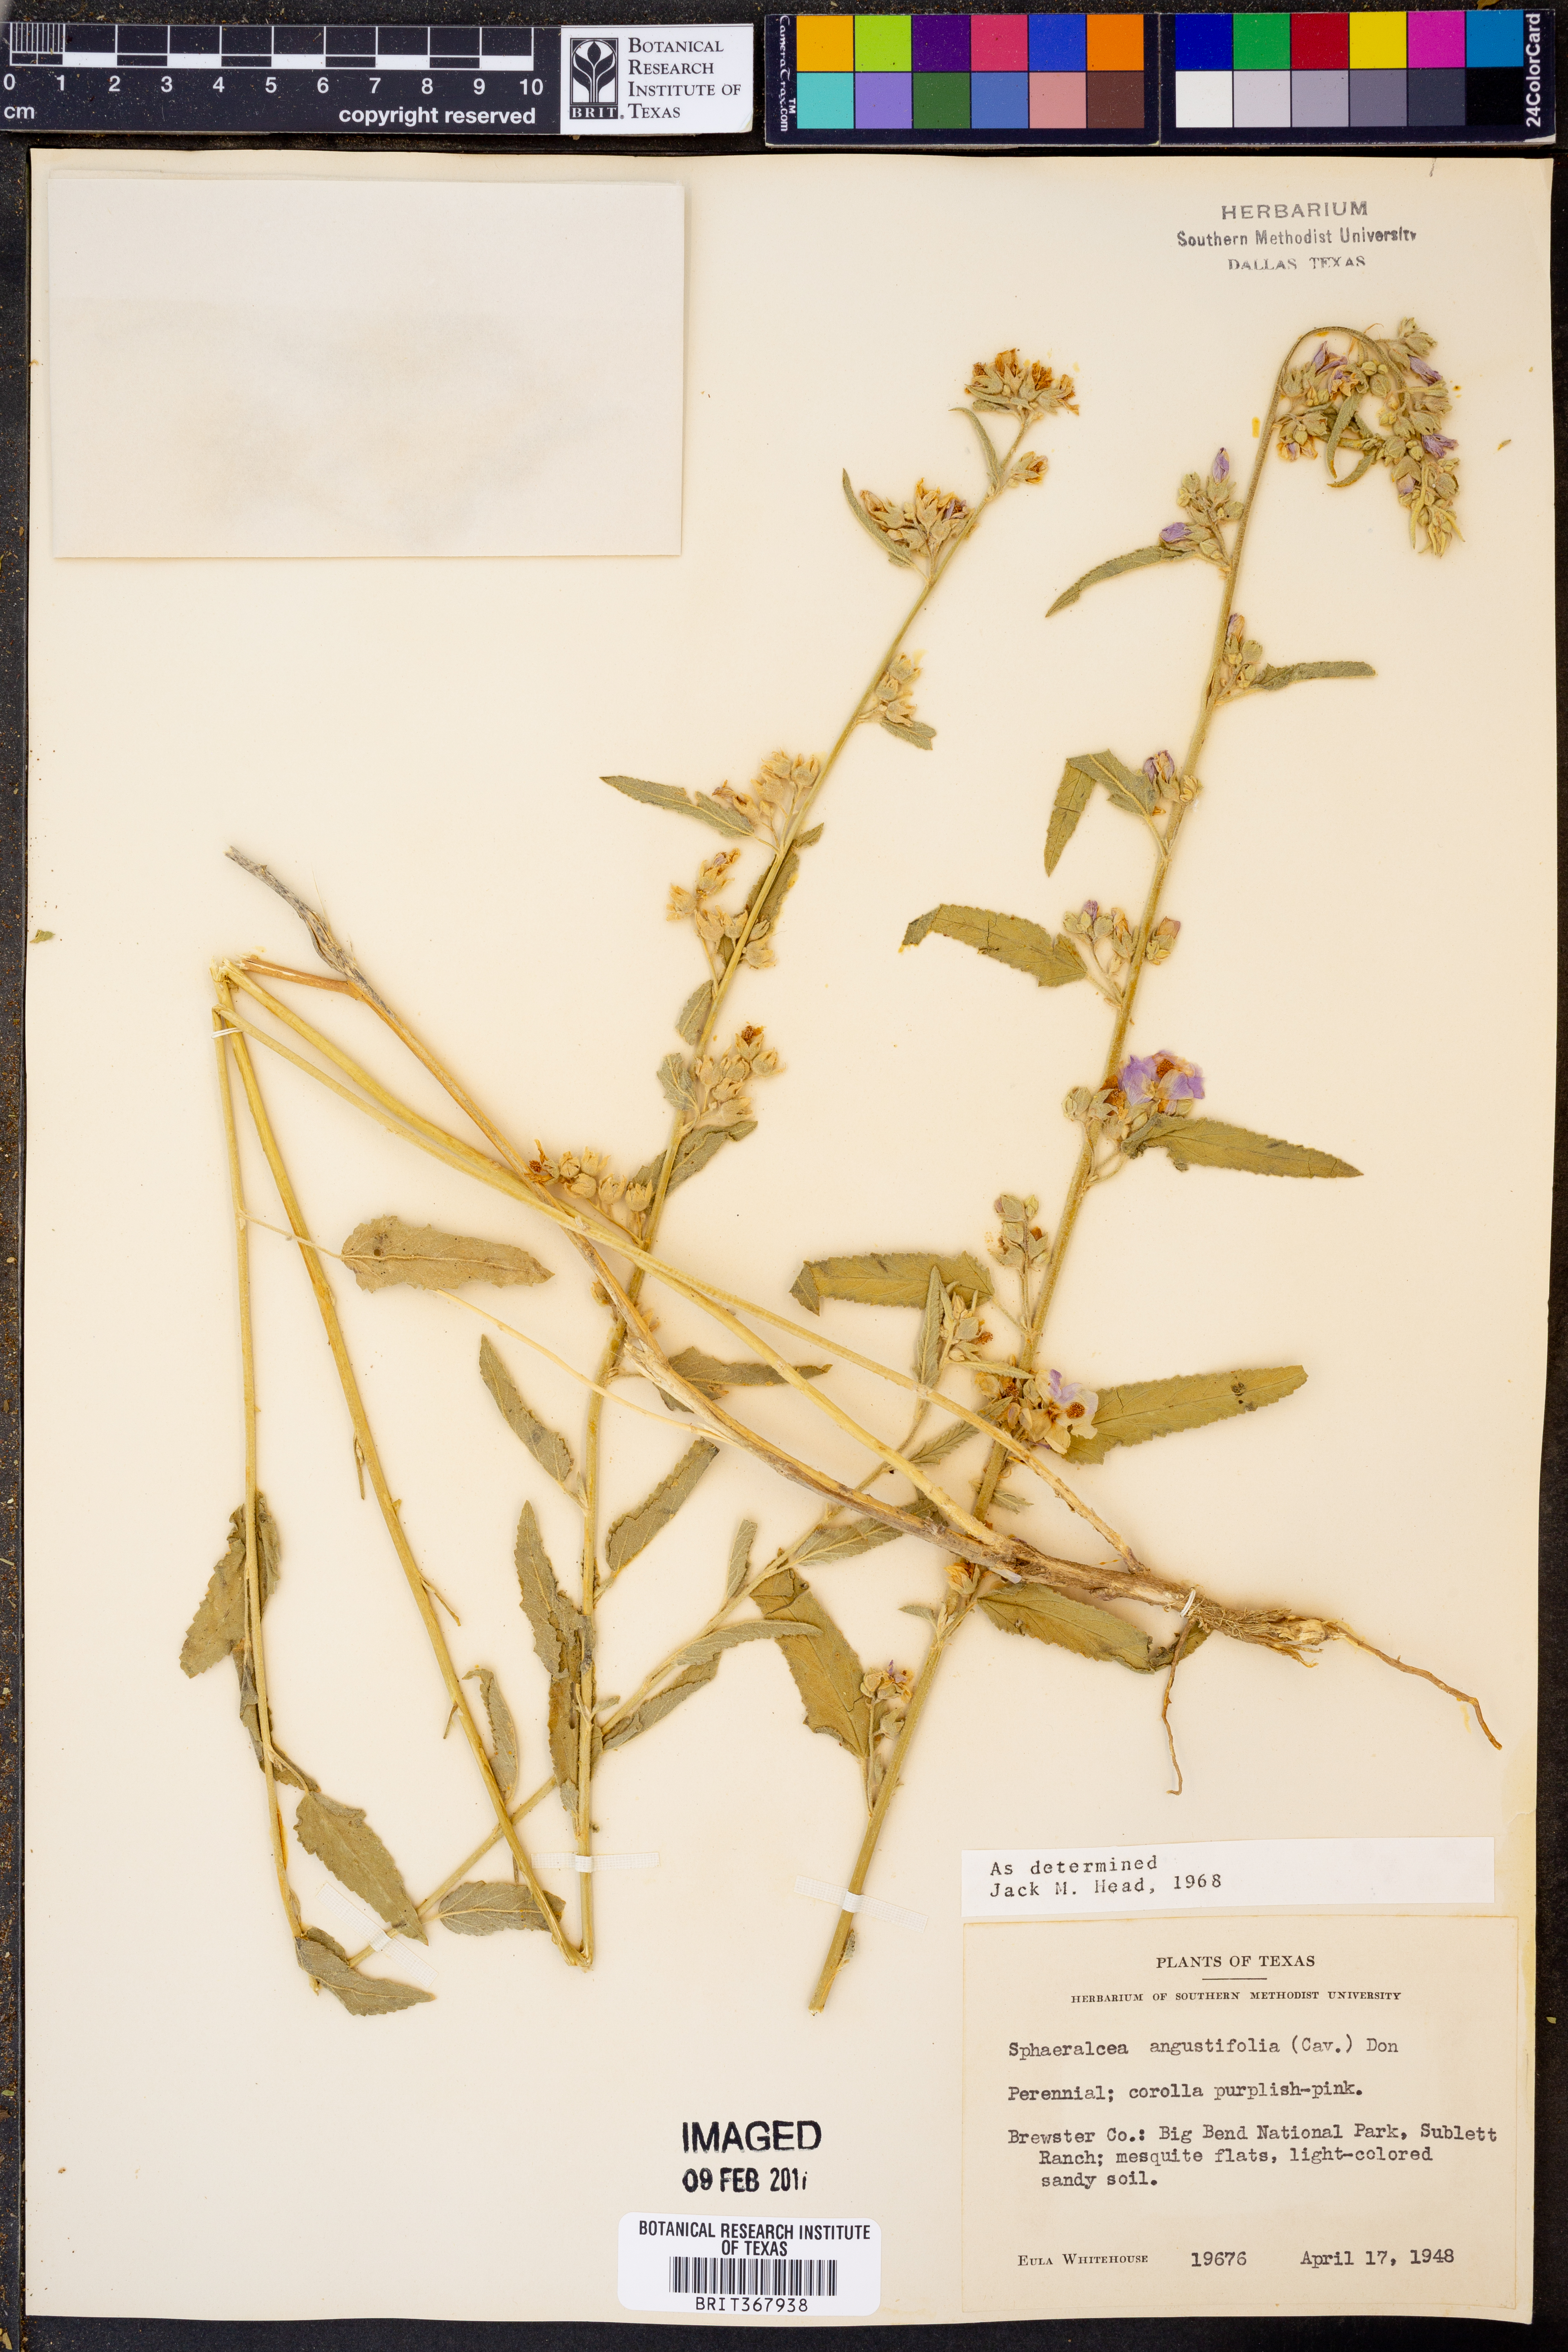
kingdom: Plantae
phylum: Tracheophyta
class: Magnoliopsida
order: Malvales
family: Malvaceae
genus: Sphaeralcea
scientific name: Sphaeralcea angustifolia
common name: Copper globe-mallow
